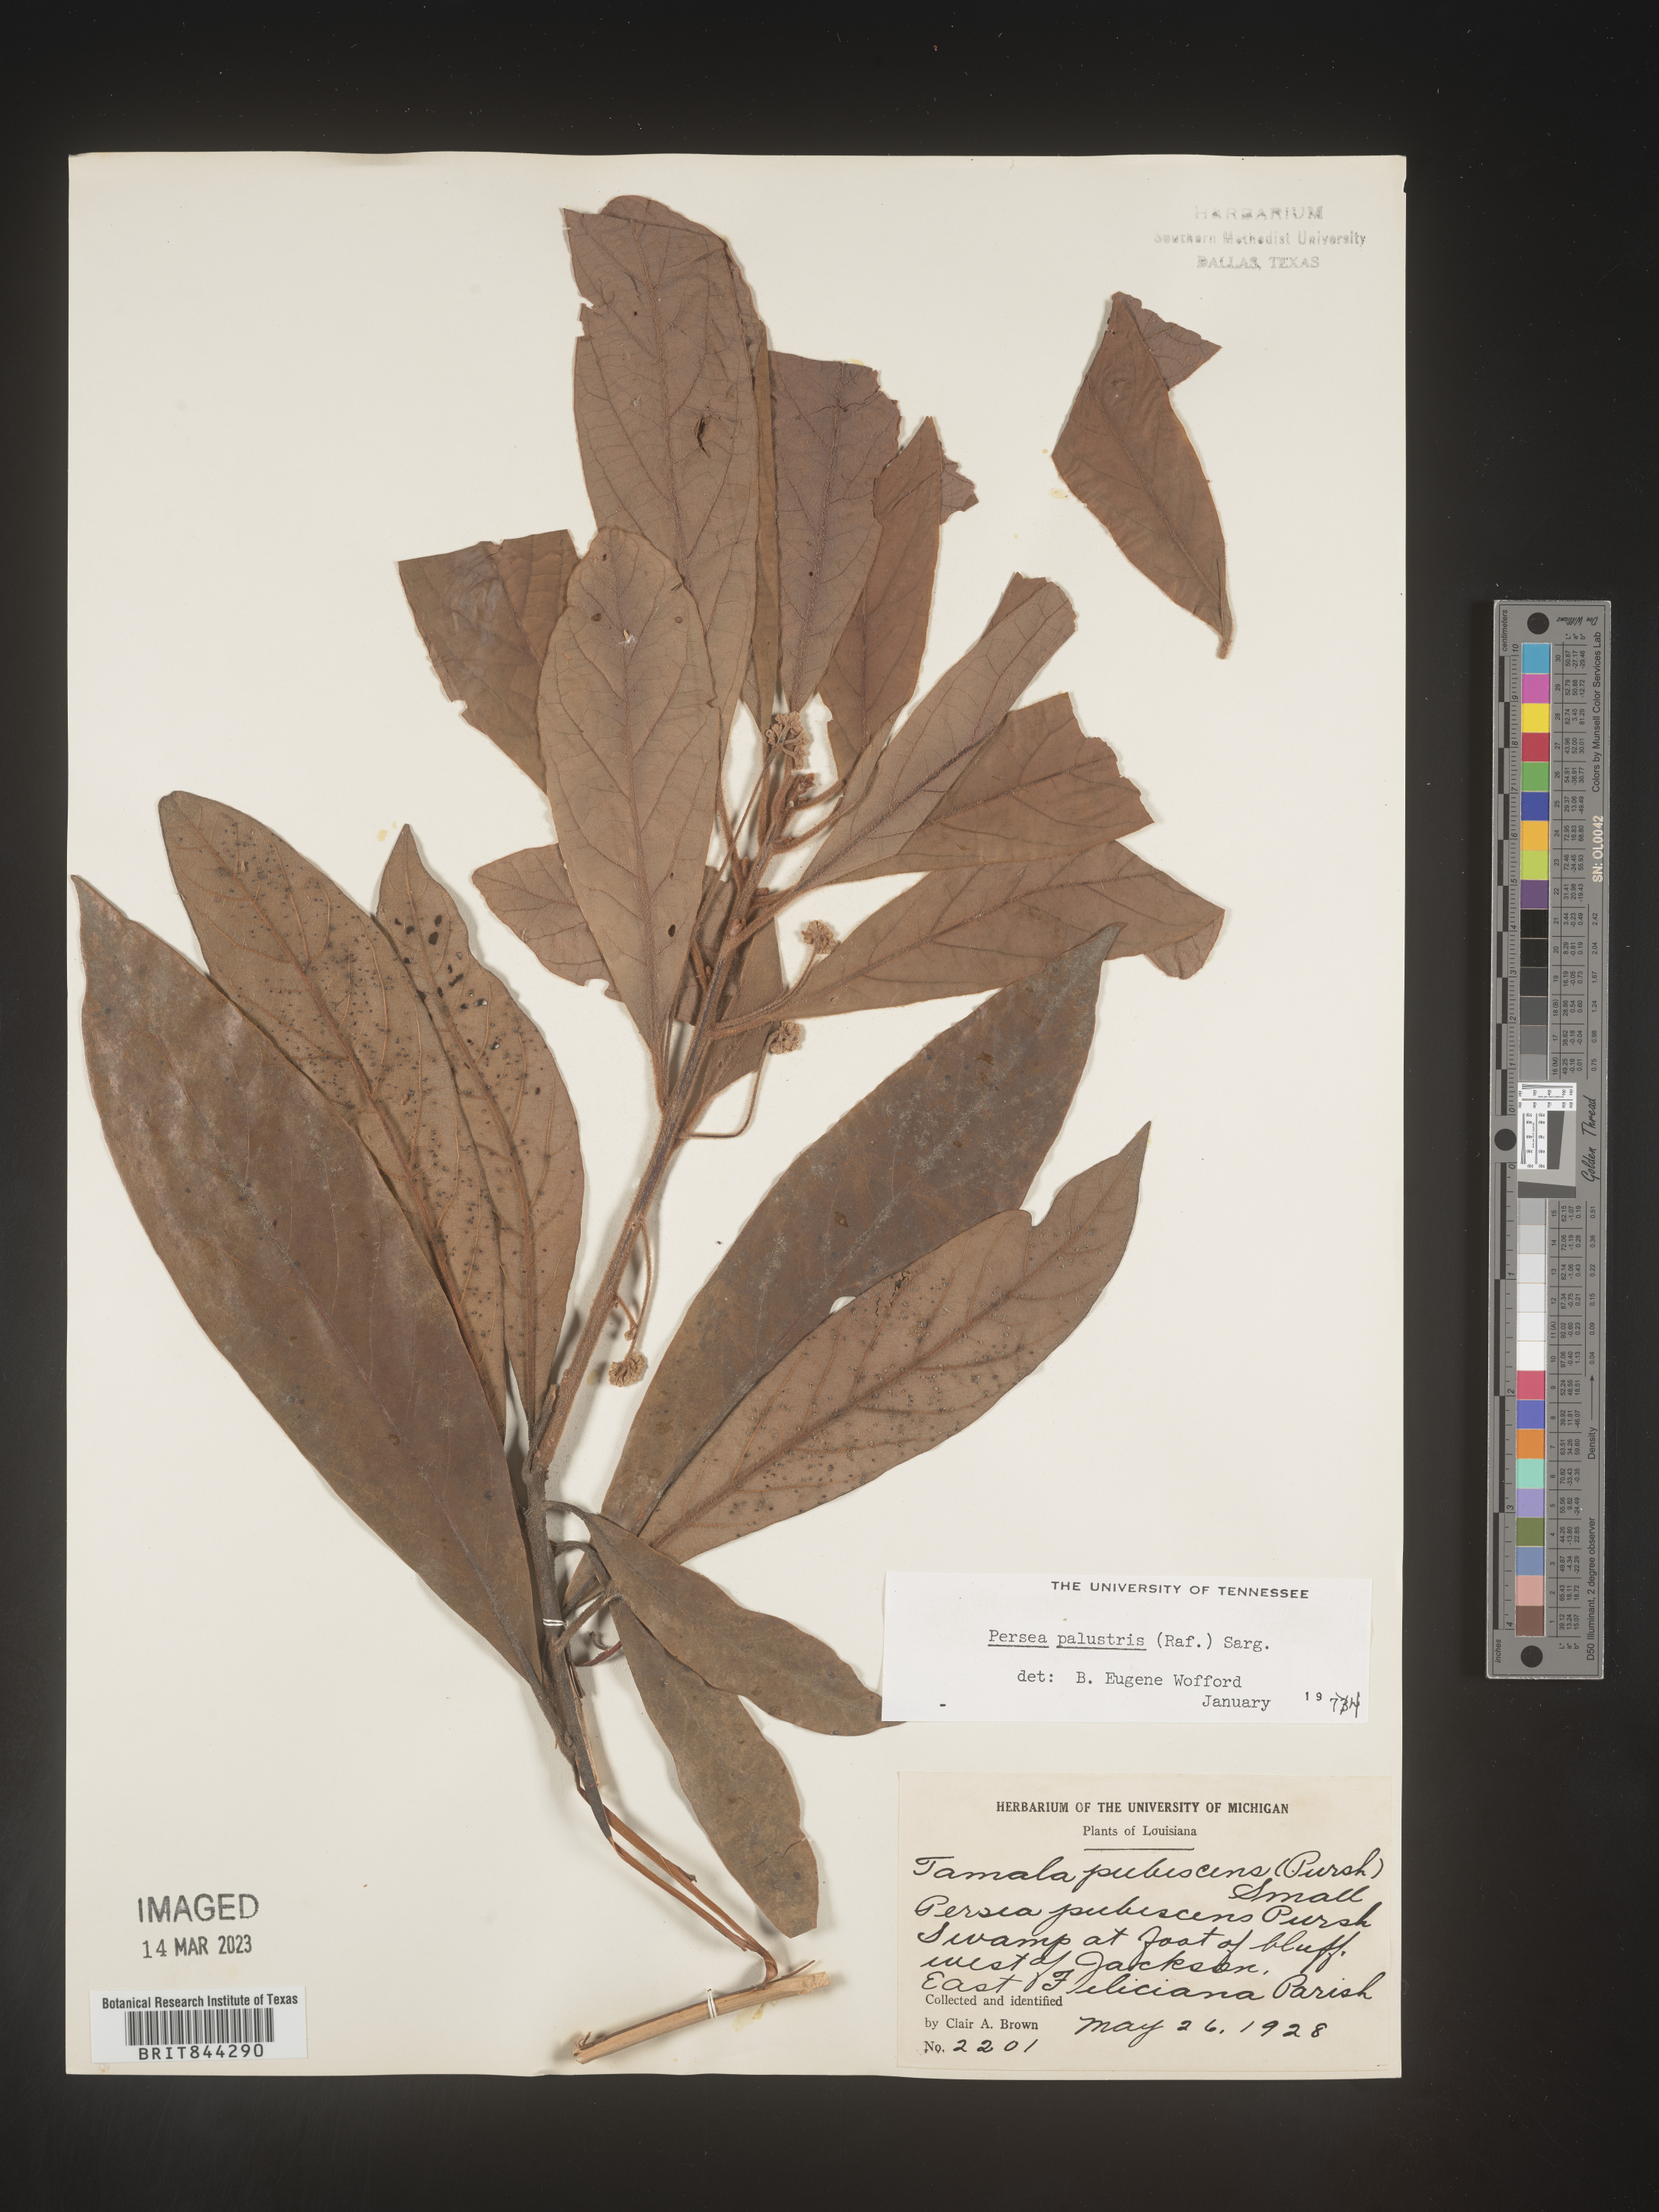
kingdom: Plantae
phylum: Tracheophyta
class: Magnoliopsida
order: Laurales
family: Lauraceae
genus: Persea
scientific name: Persea palustris
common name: Swampbay
